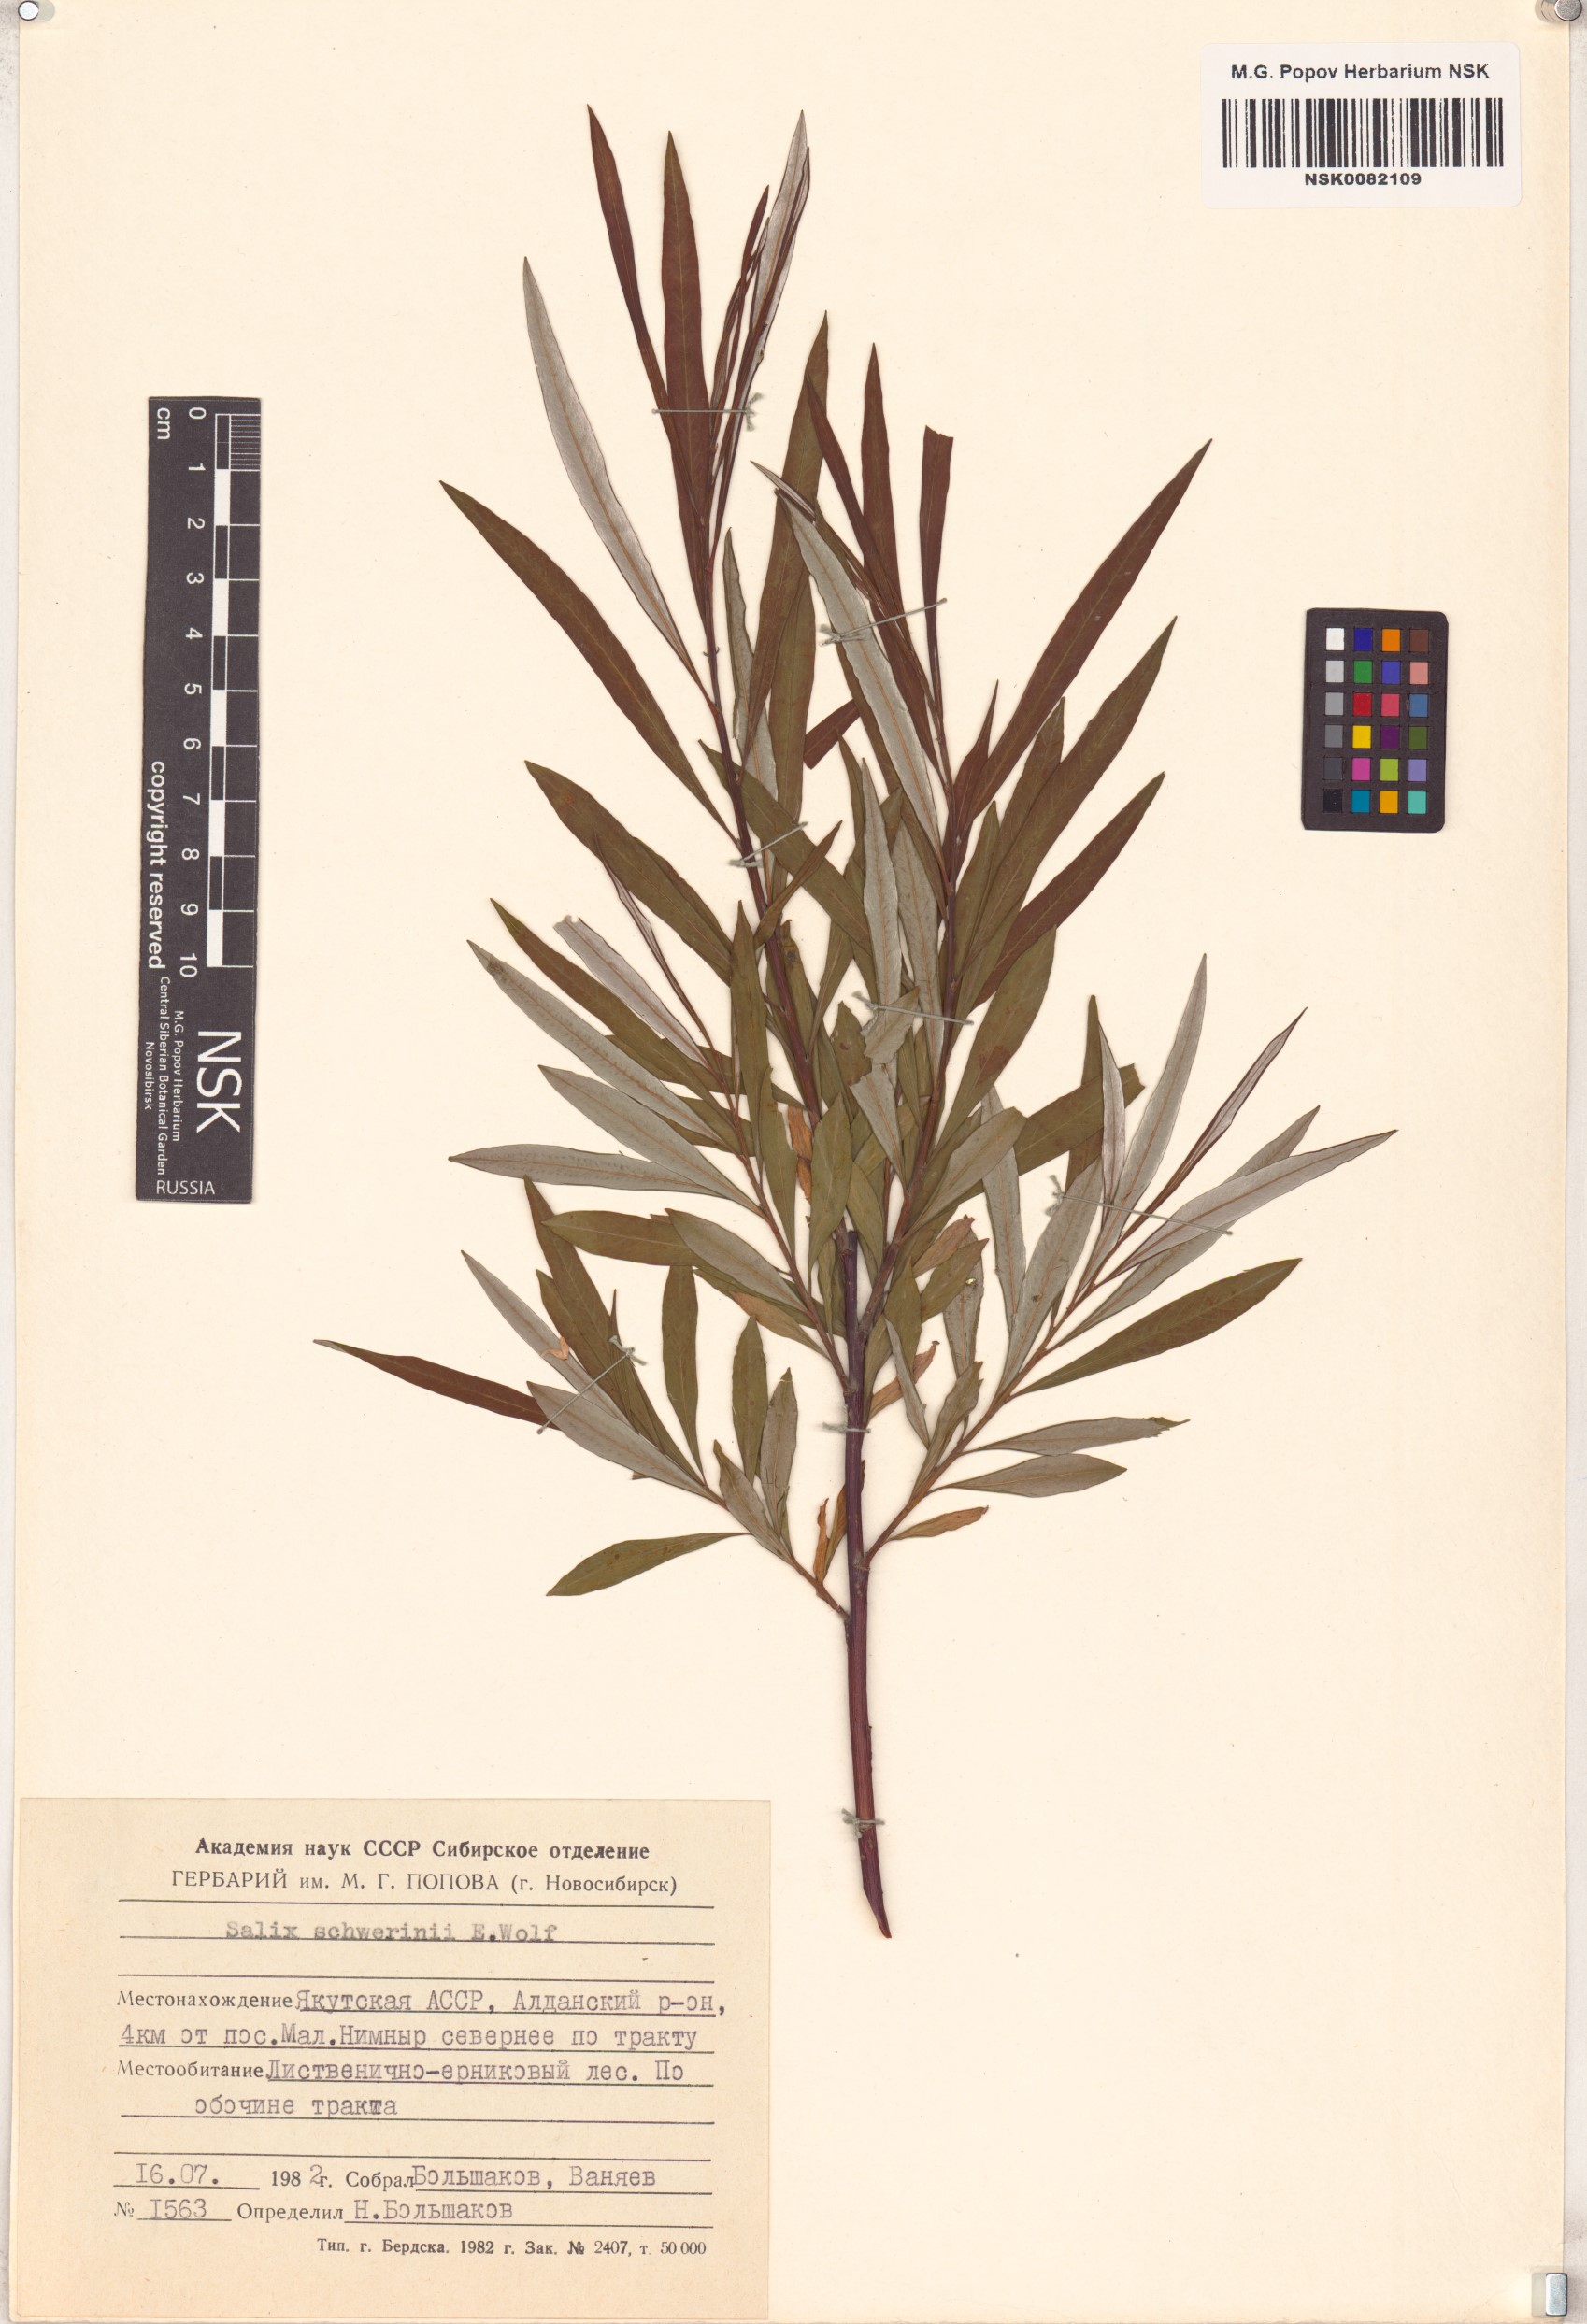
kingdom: Plantae
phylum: Tracheophyta
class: Magnoliopsida
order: Malpighiales
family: Salicaceae
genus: Salix
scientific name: Salix schwerinii
